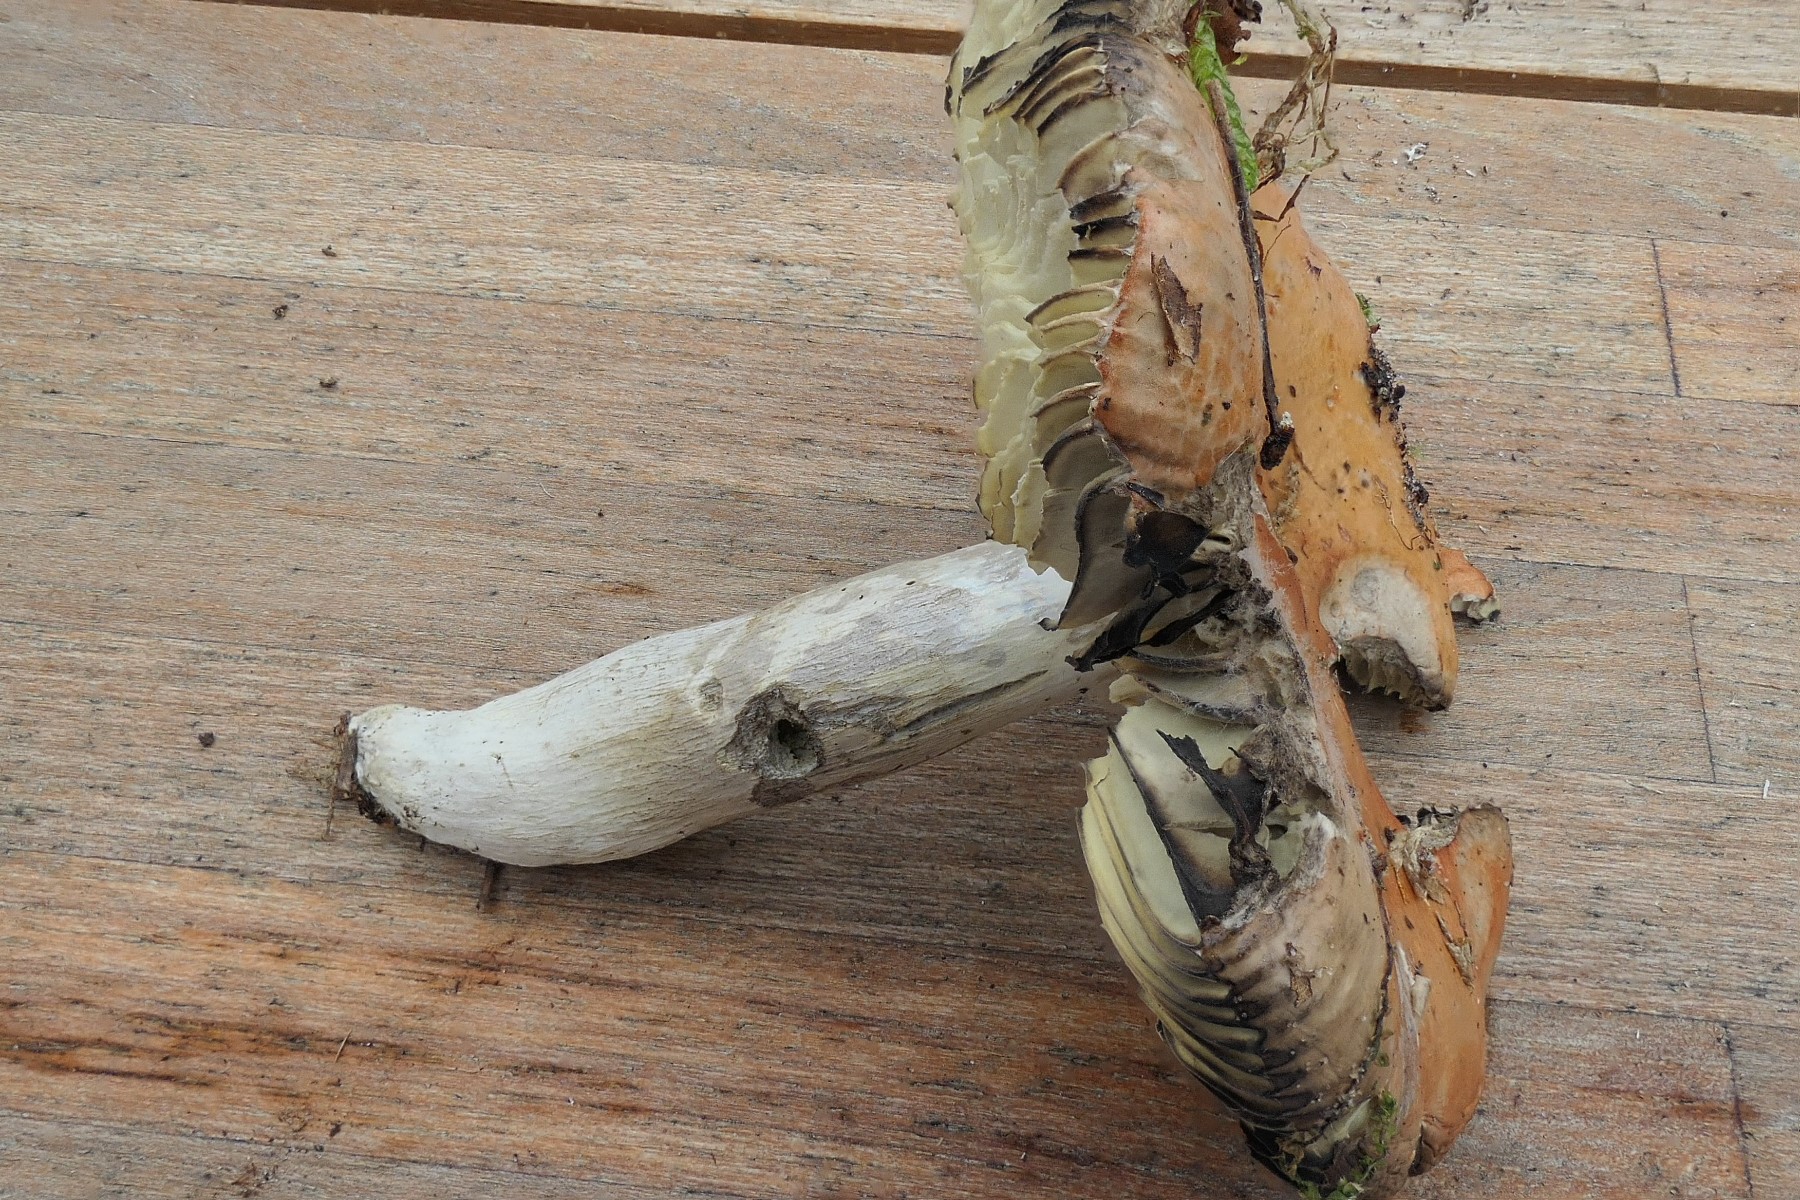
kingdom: Fungi
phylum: Basidiomycota
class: Agaricomycetes
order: Russulales
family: Russulaceae
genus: Russula
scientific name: Russula decolorans
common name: afblegende skørhat
